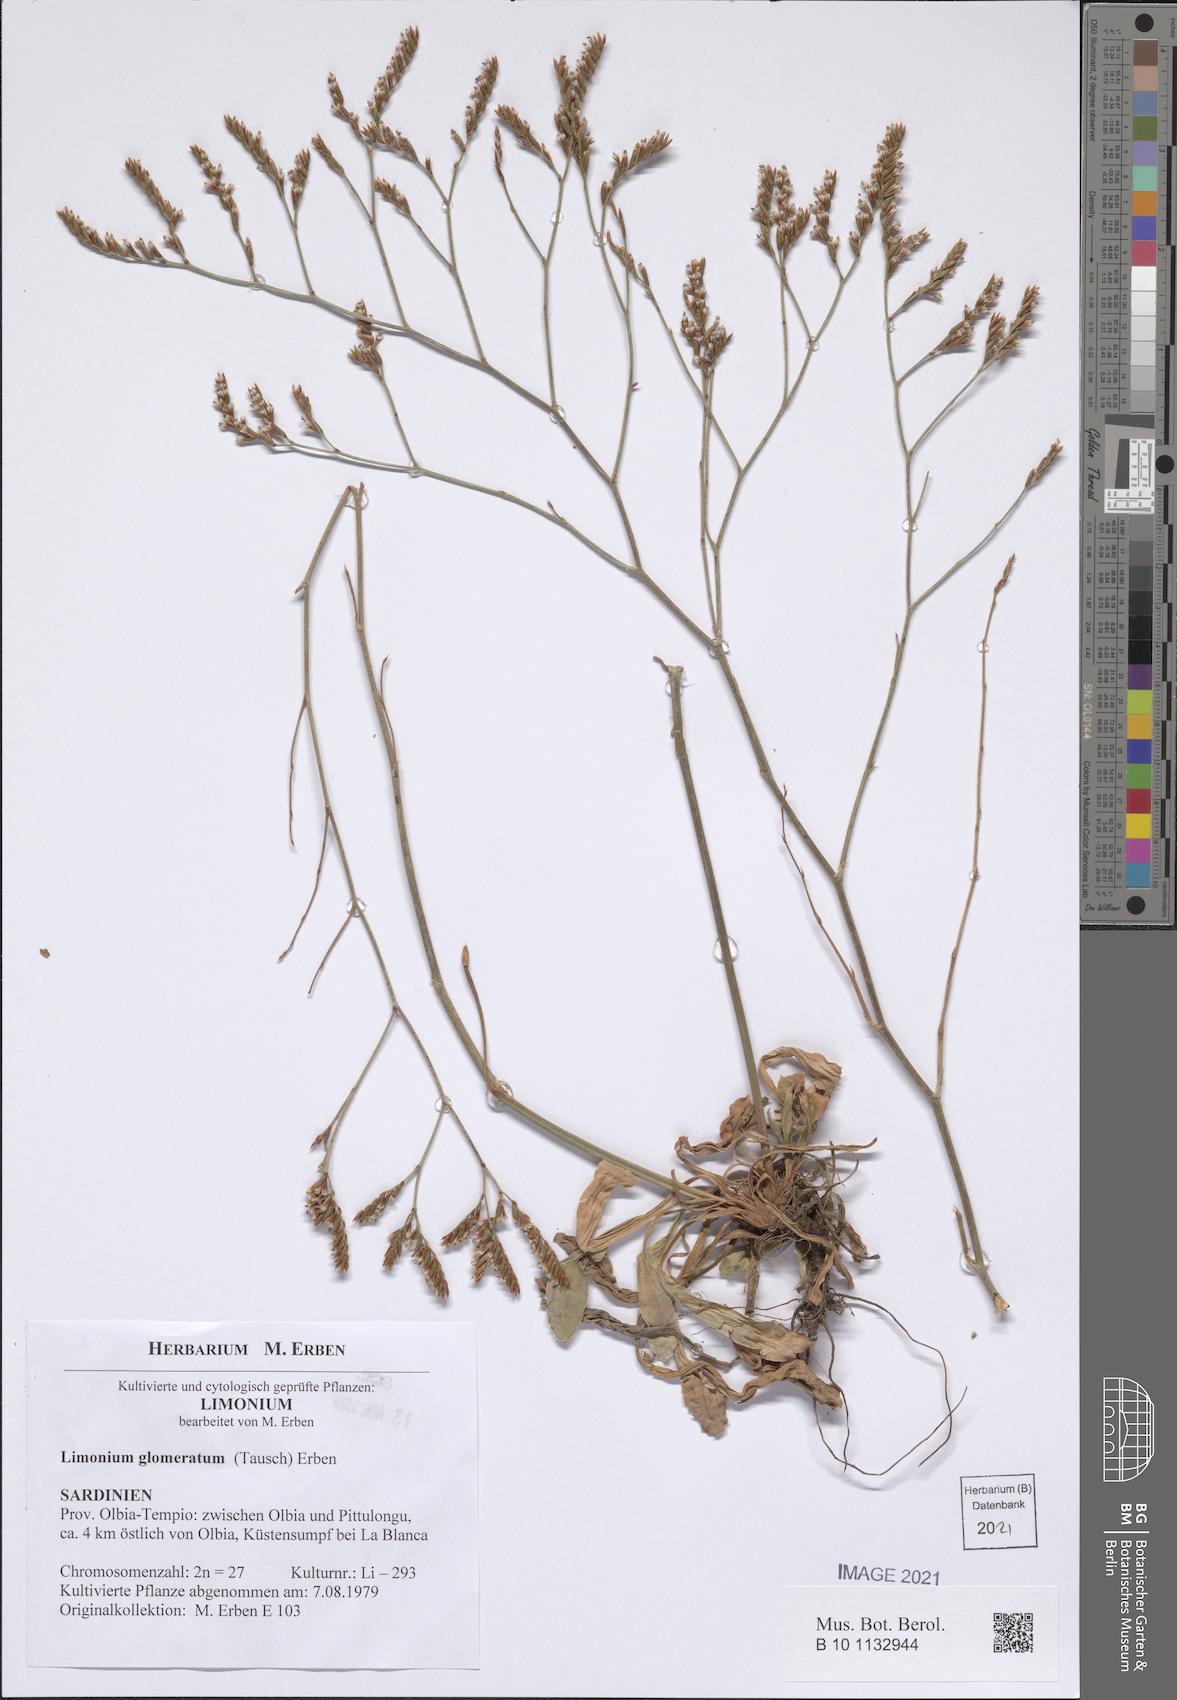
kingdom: Plantae
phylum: Tracheophyta
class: Magnoliopsida
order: Caryophyllales
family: Plumbaginaceae
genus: Limonium
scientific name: Limonium glomeratum
